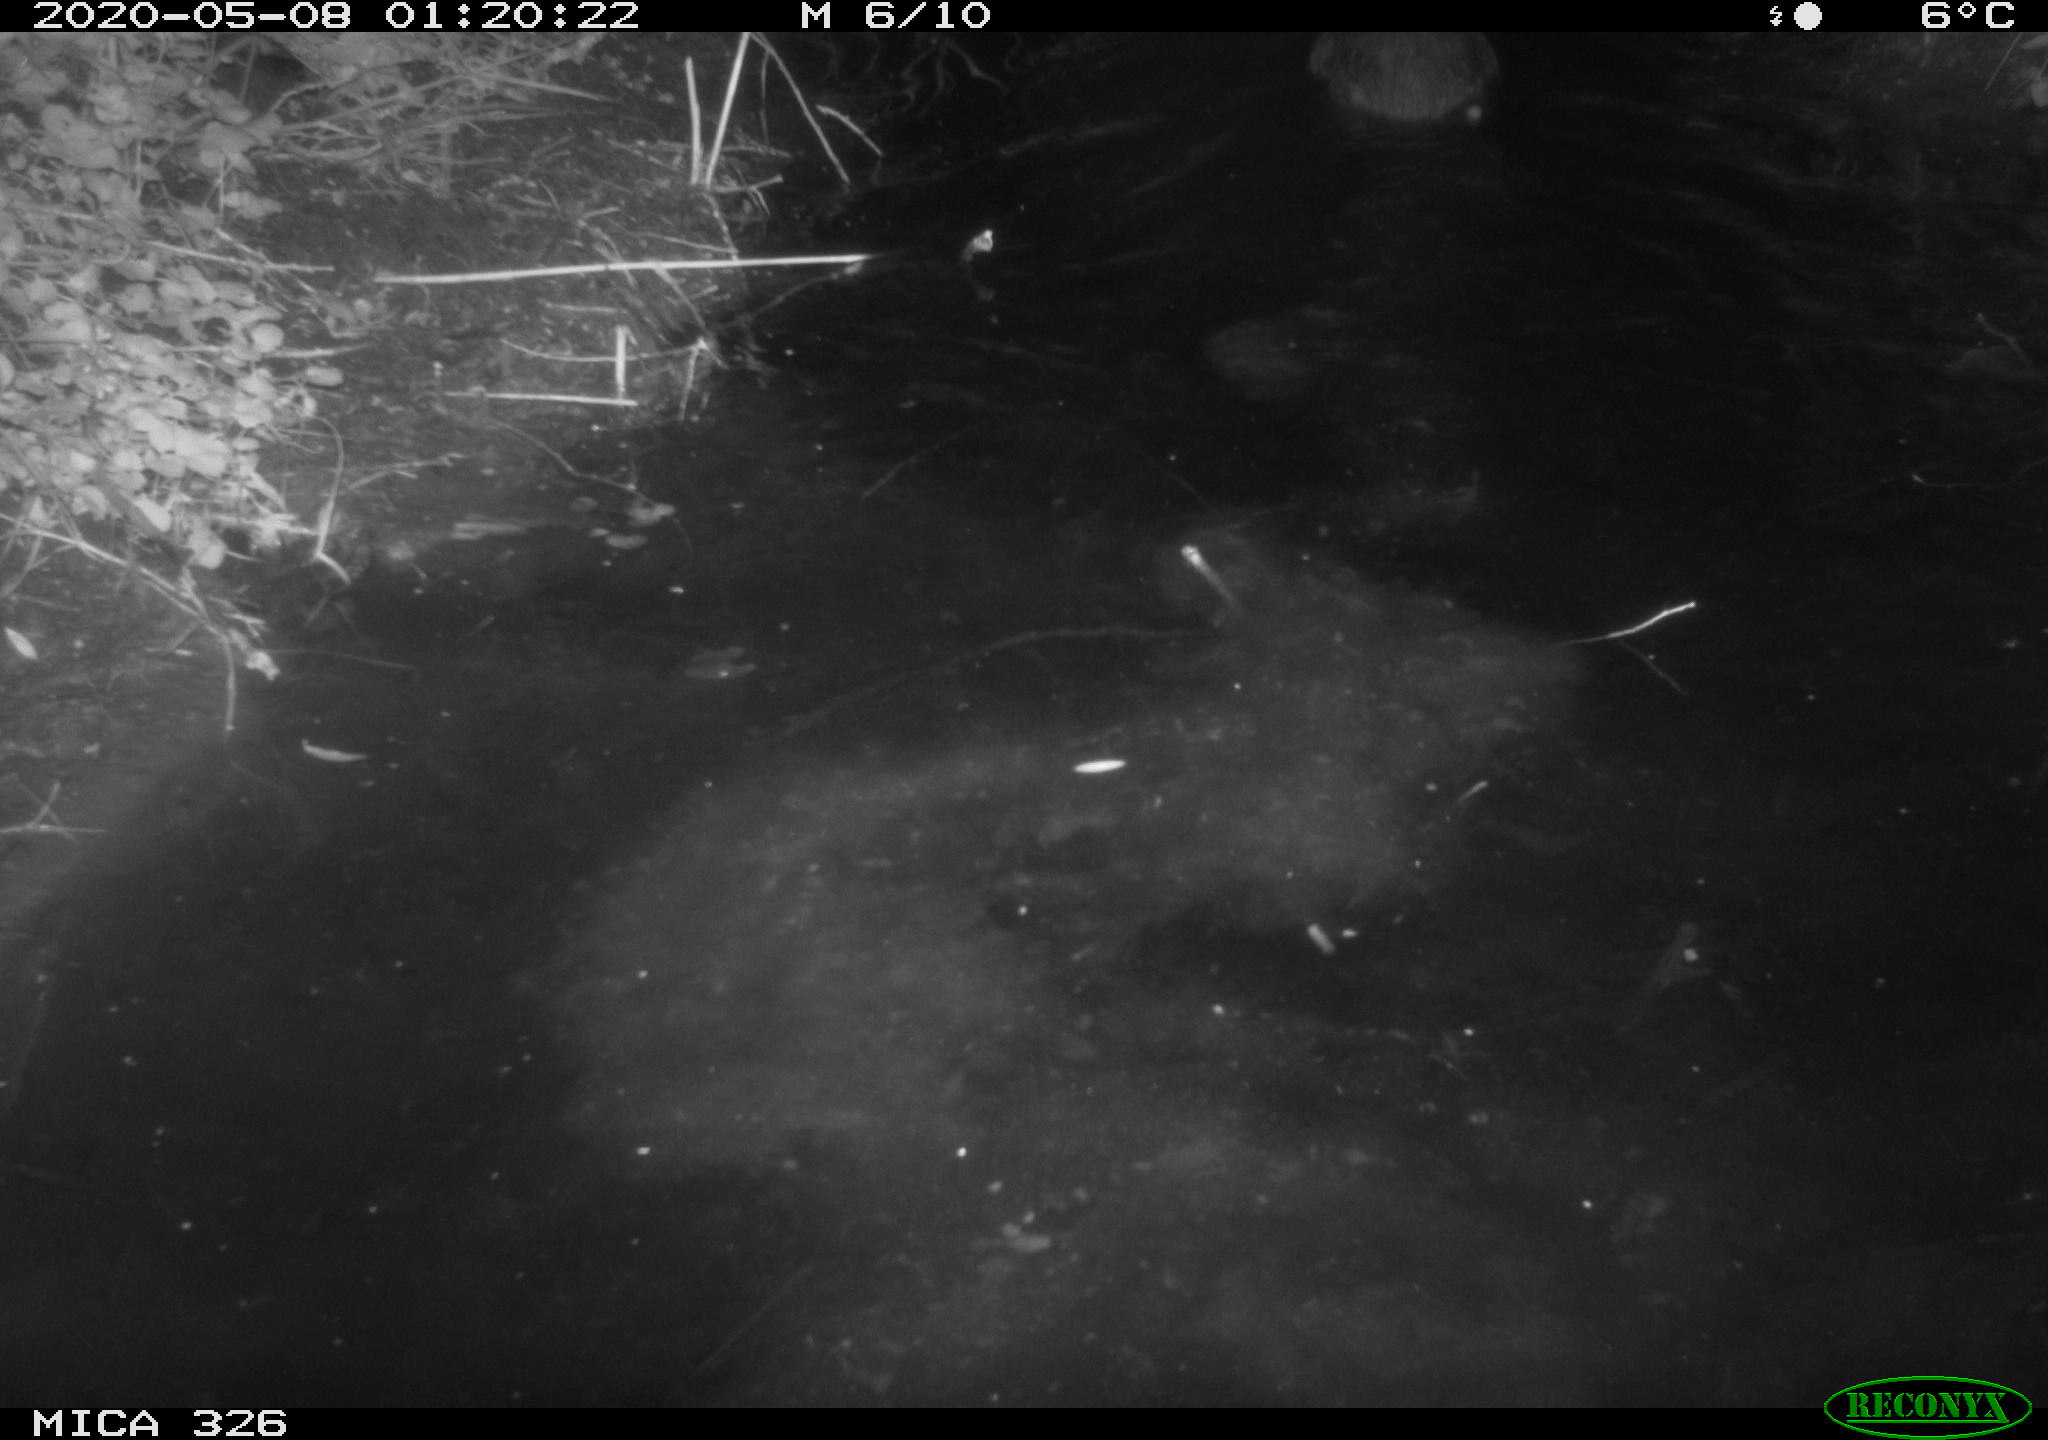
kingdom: Animalia
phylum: Chordata
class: Mammalia
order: Rodentia
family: Myocastoridae
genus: Myocastor
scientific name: Myocastor coypus
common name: Coypu
